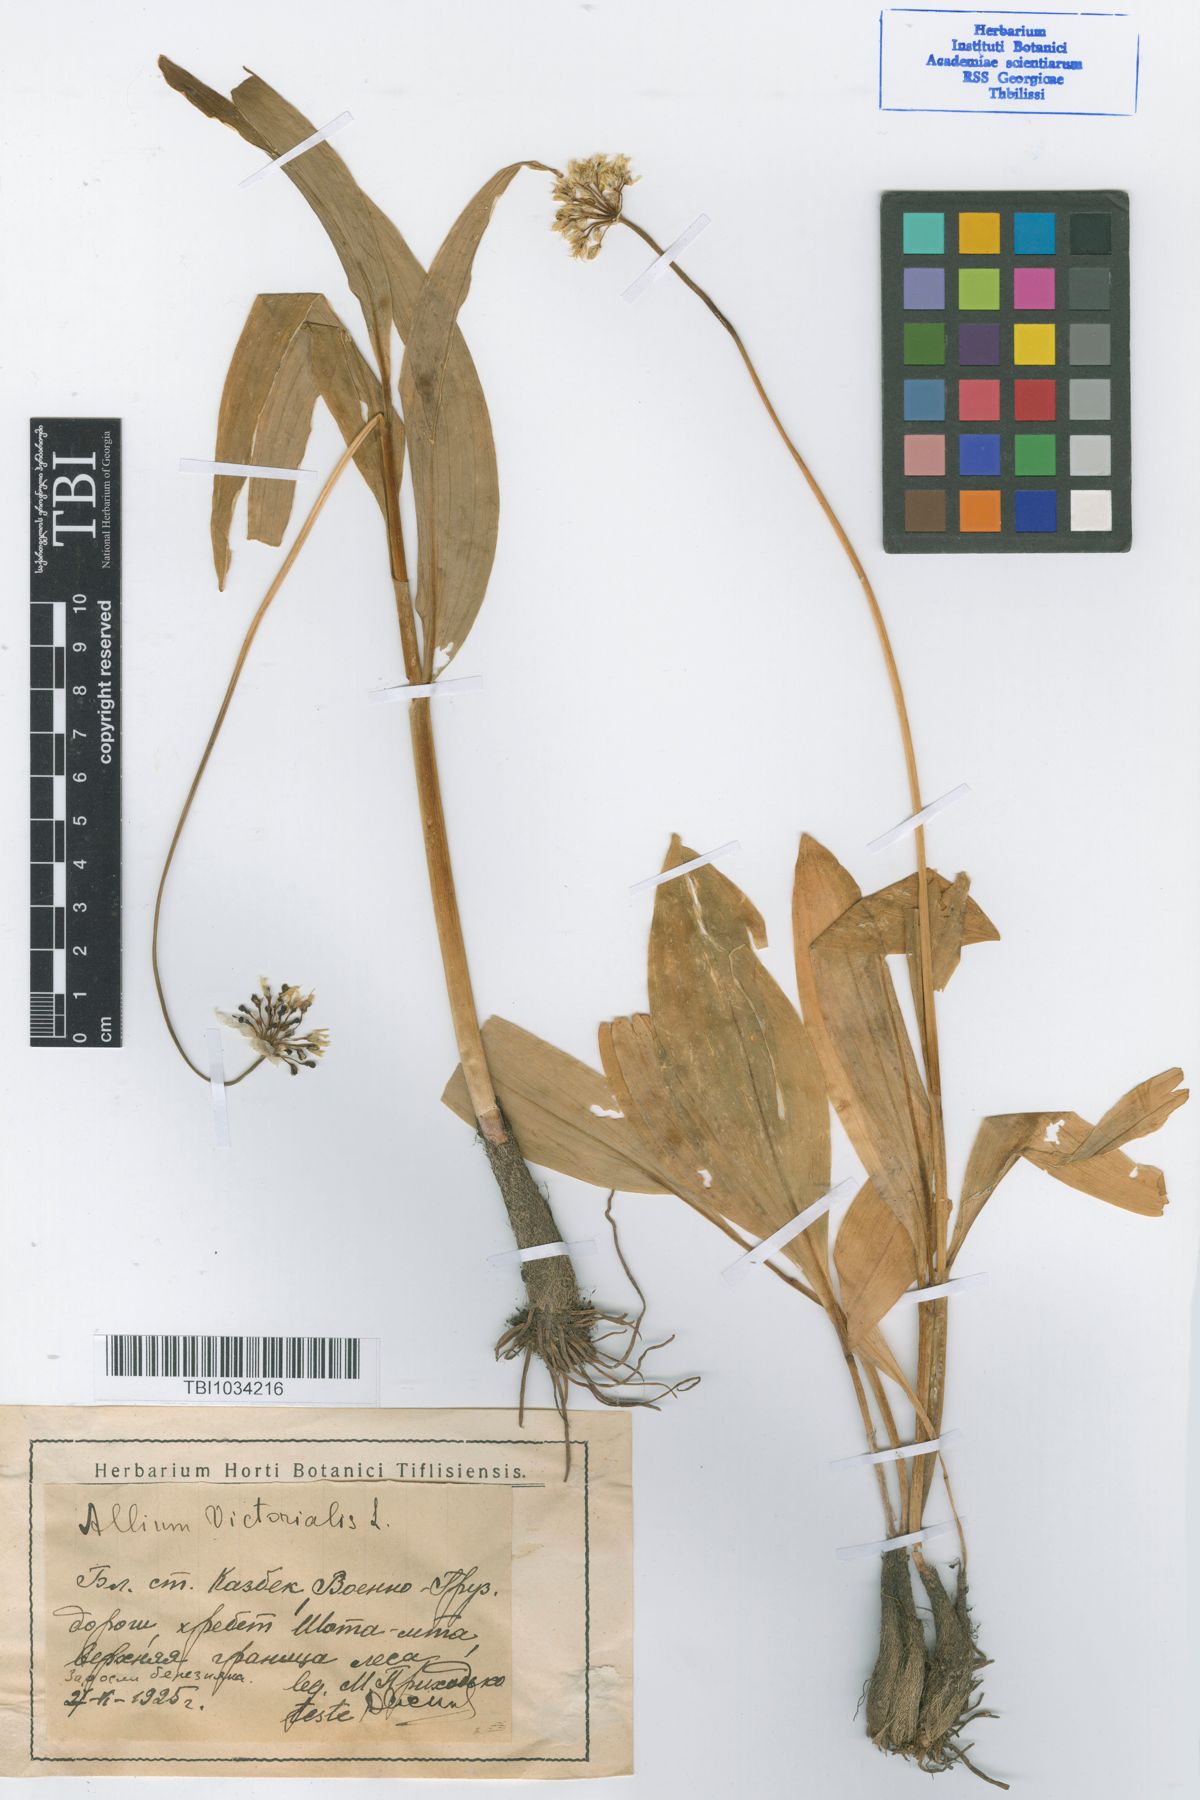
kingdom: Plantae
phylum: Tracheophyta
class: Liliopsida
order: Asparagales
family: Amaryllidaceae
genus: Allium
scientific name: Allium victorialis
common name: Alpine leek
